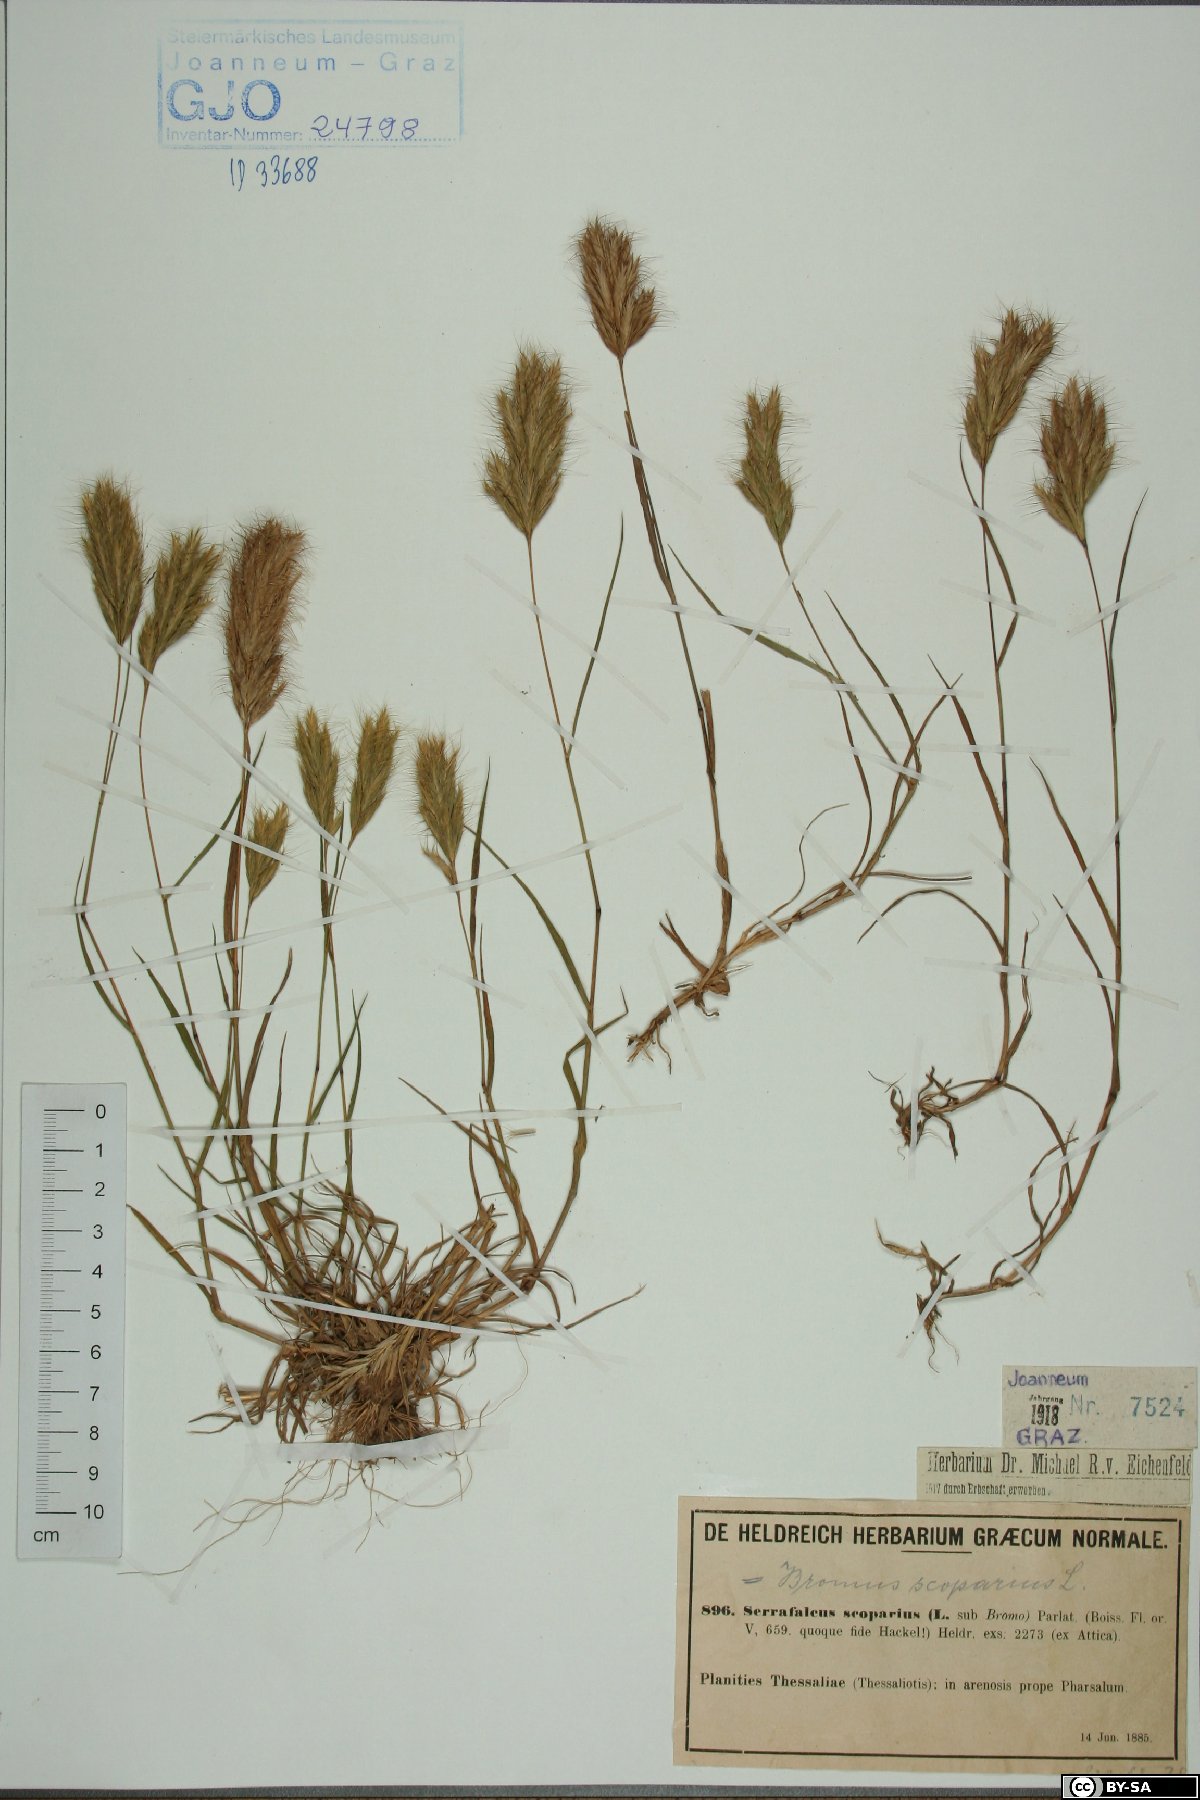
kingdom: Plantae
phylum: Tracheophyta
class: Liliopsida
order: Poales
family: Poaceae
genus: Bromus
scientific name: Bromus scoparius
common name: Broom brome
